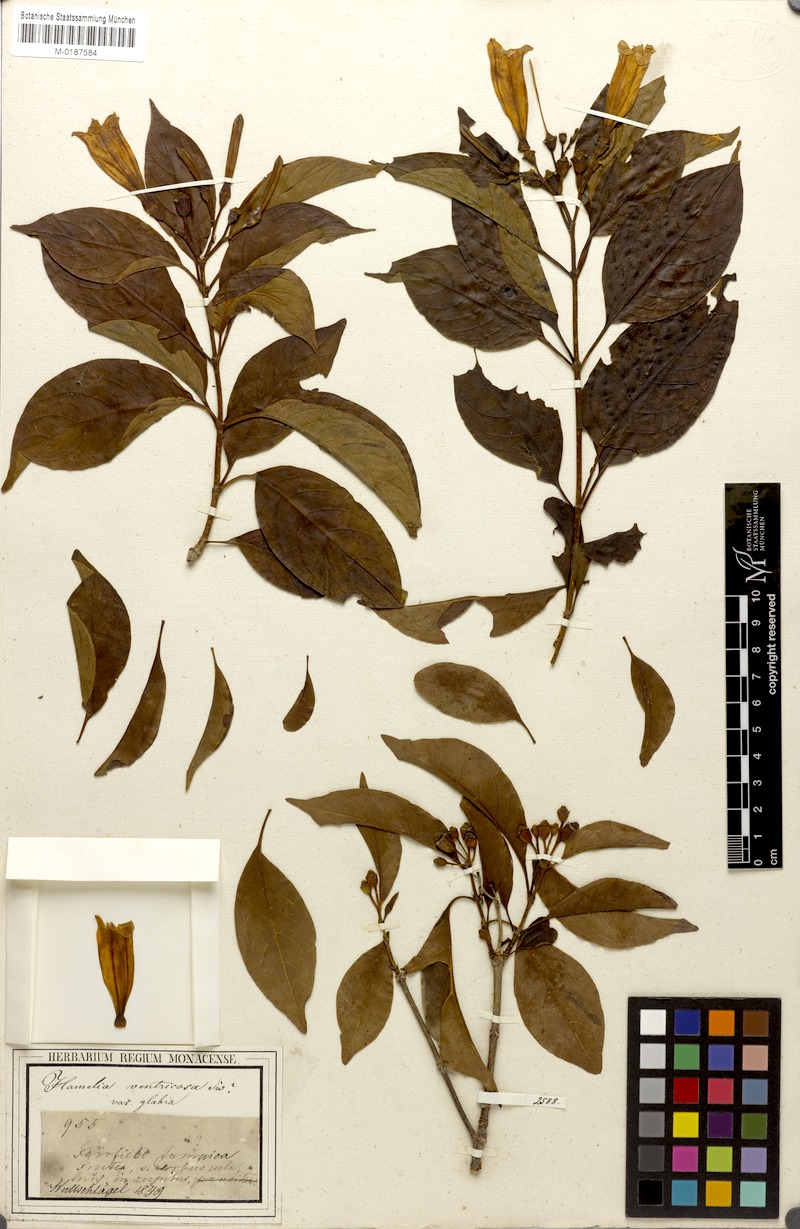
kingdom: Plantae
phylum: Tracheophyta
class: Magnoliopsida
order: Gentianales
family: Rubiaceae
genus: Hamelia
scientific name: Hamelia ventricosa
